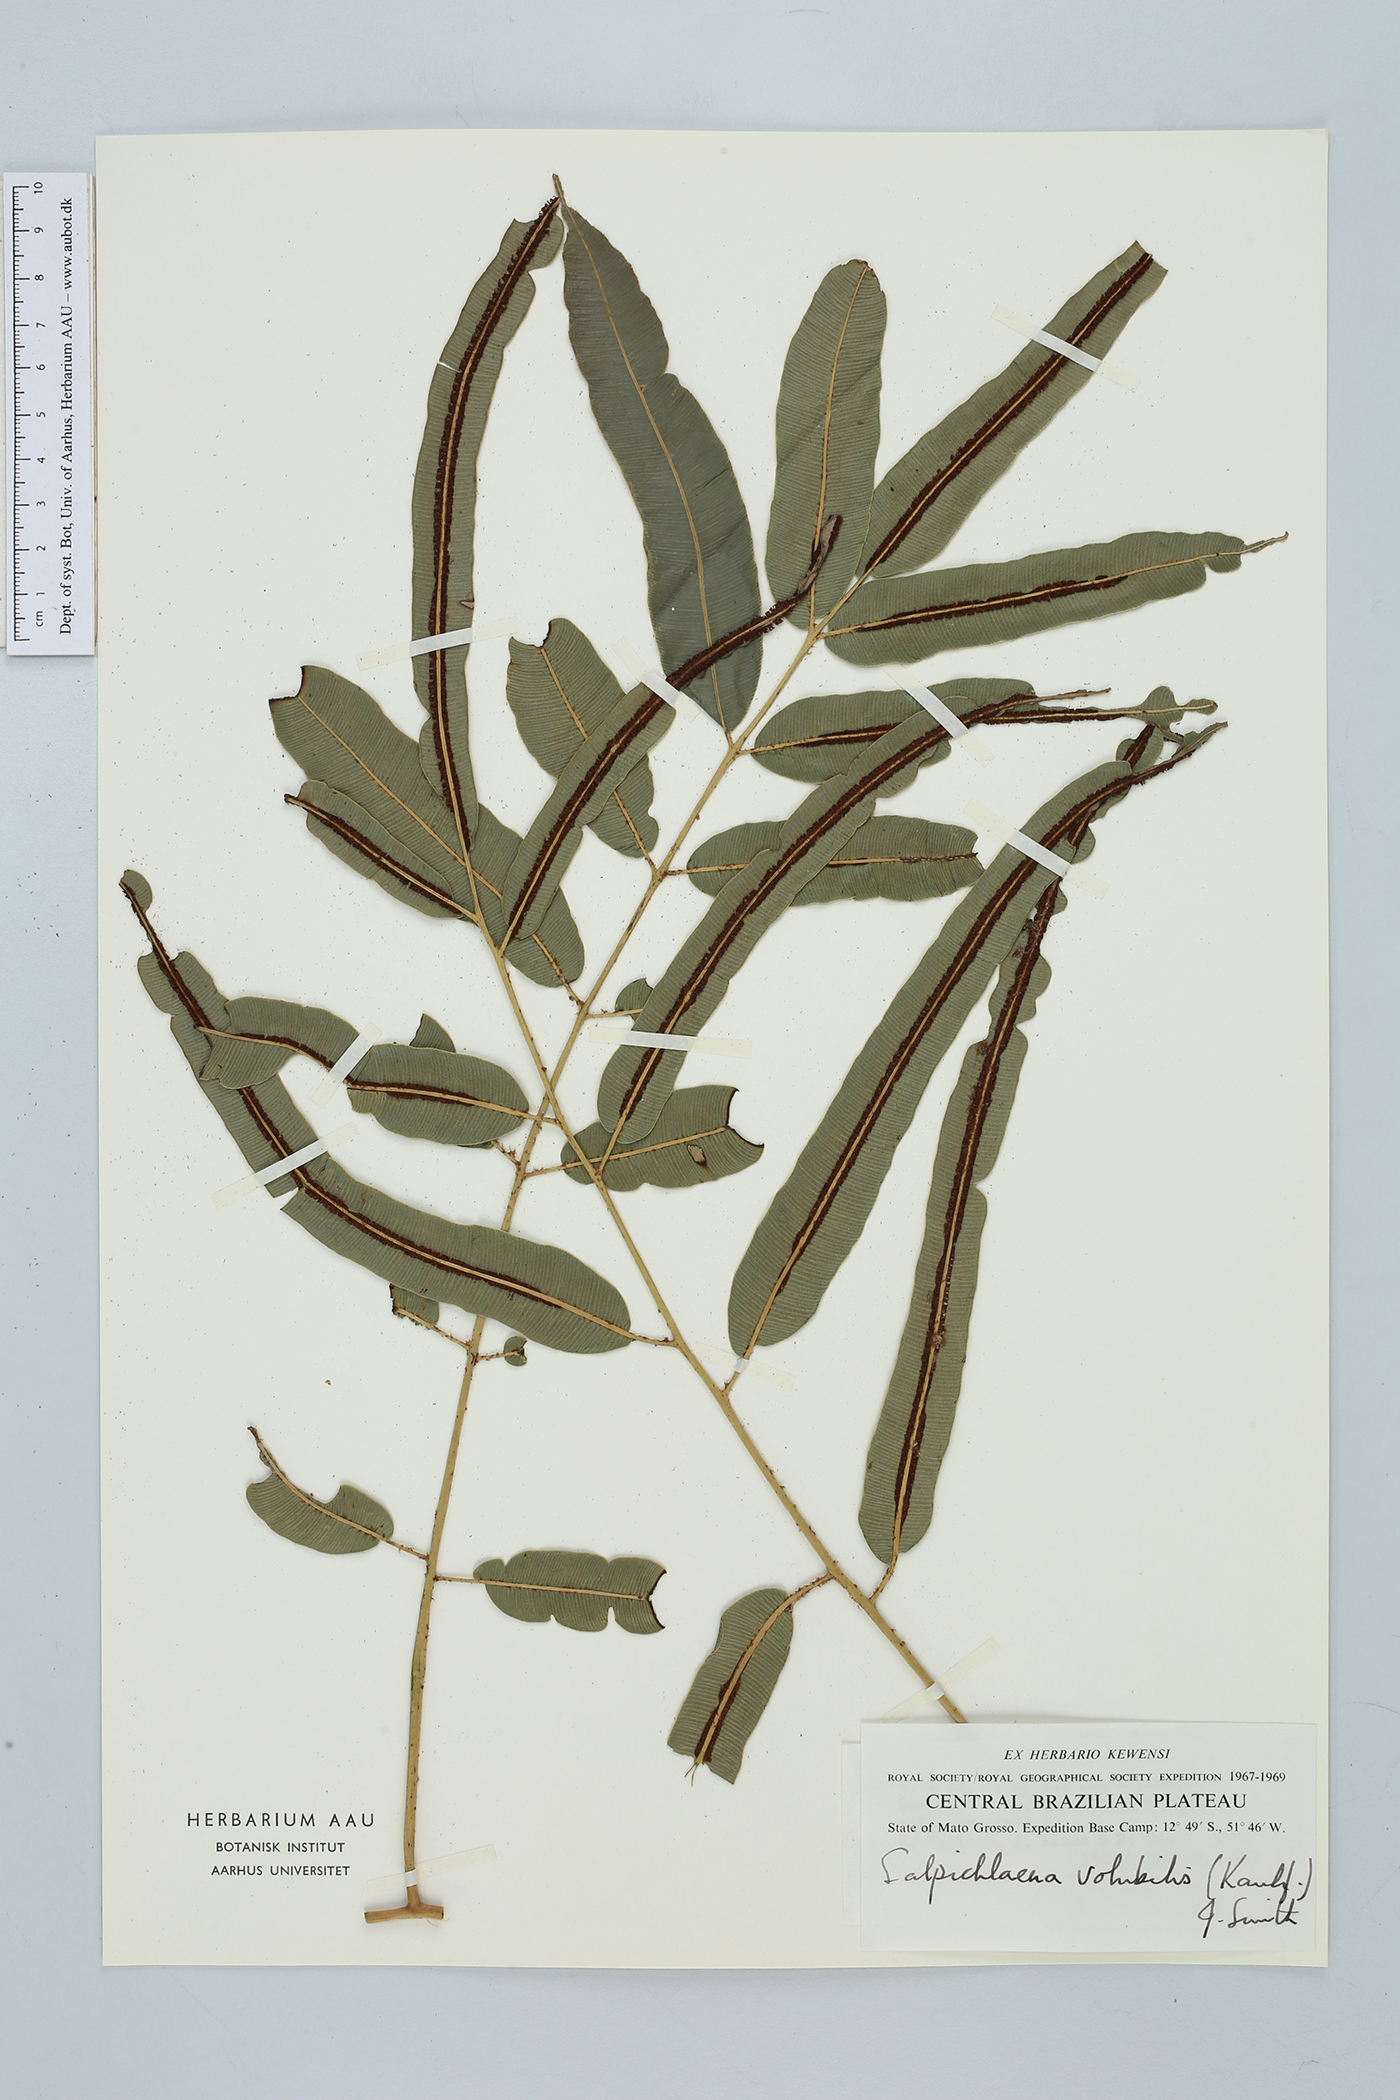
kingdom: Plantae
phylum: Tracheophyta
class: Polypodiopsida
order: Polypodiales
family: Blechnaceae
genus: Salpichlaena
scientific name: Salpichlaena hookeriana
